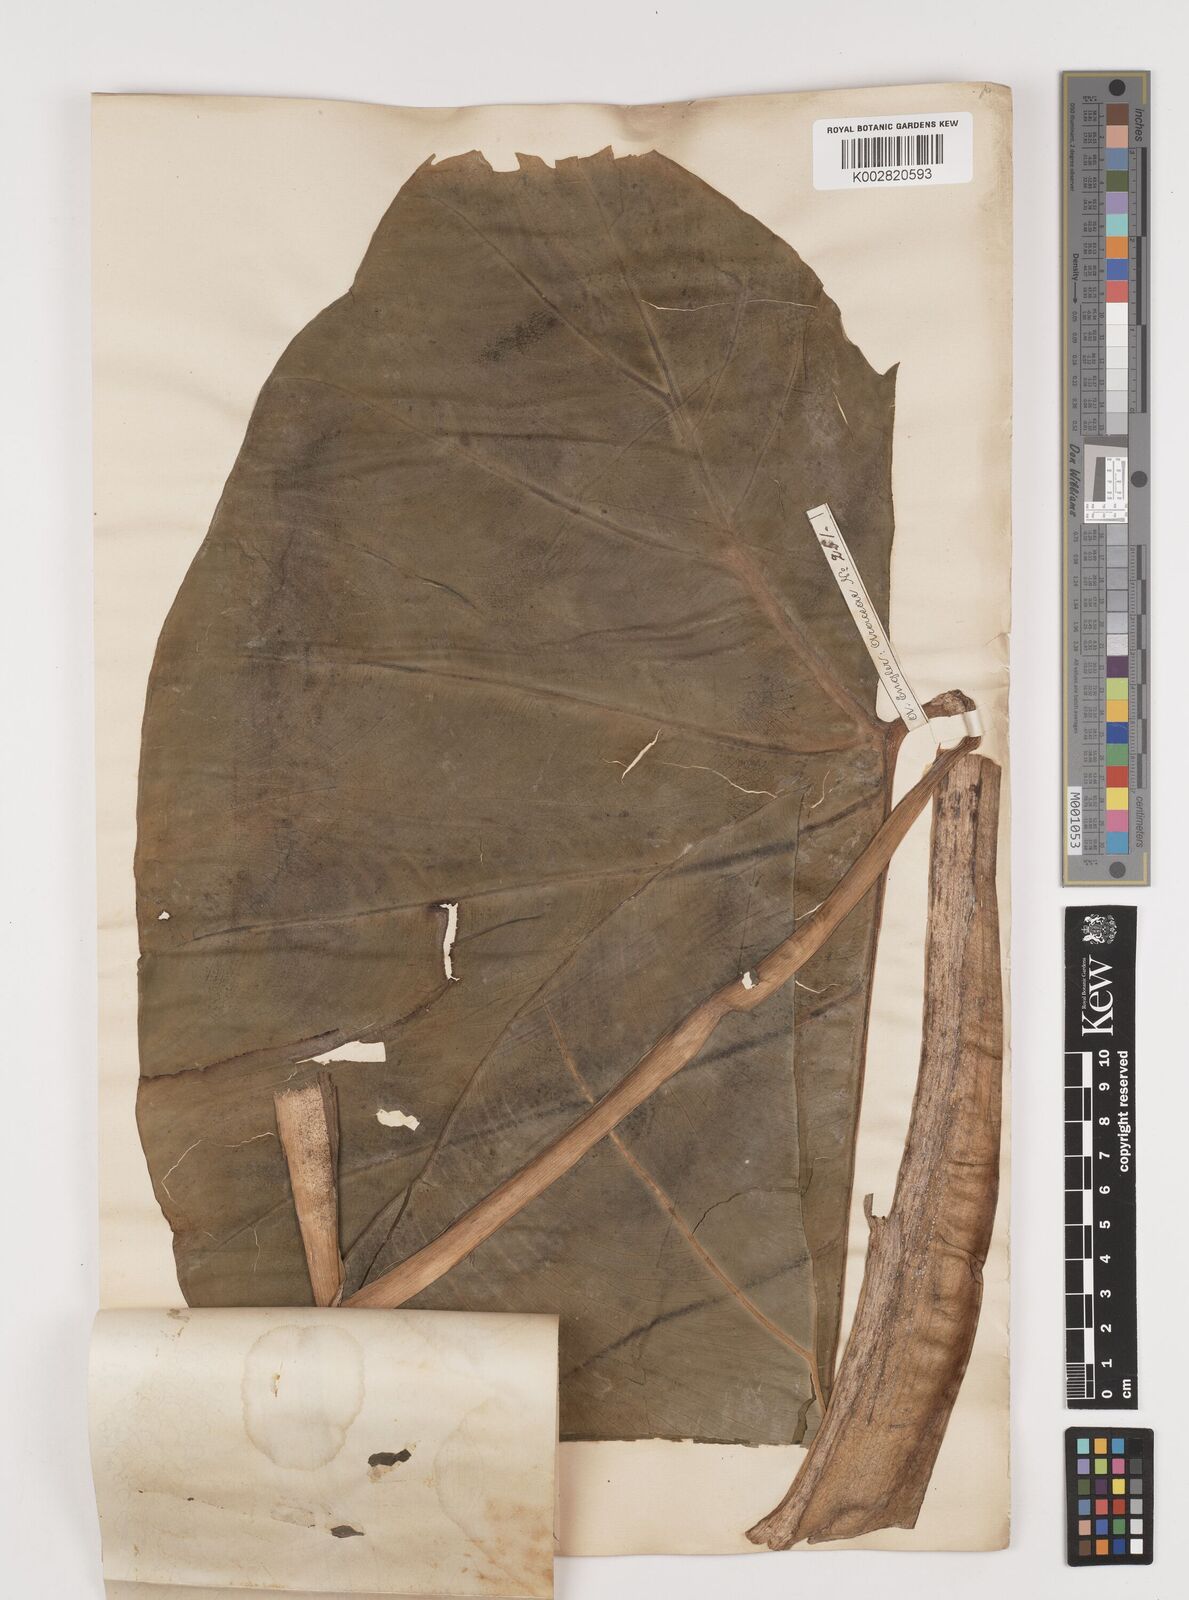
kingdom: Plantae
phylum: Tracheophyta
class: Liliopsida
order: Alismatales
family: Araceae
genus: Colocasia
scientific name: Colocasia esculenta
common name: Taro
